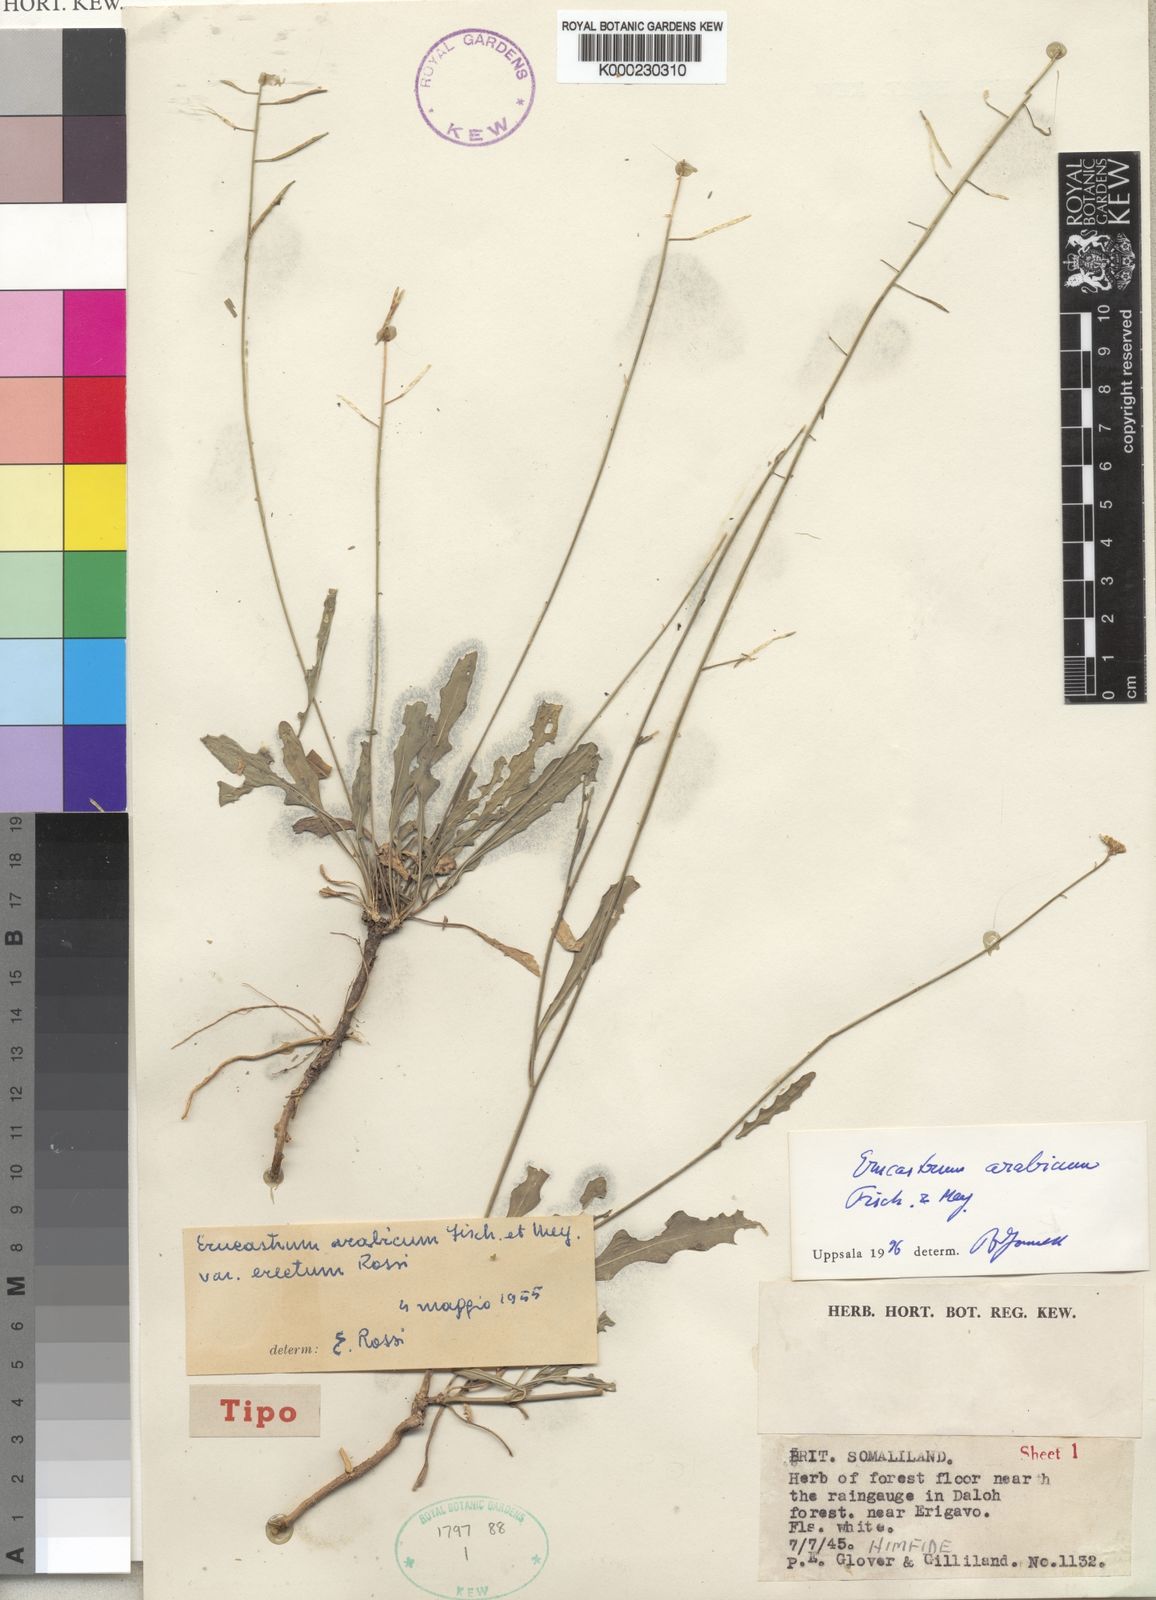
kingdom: Plantae
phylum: Tracheophyta
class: Magnoliopsida
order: Brassicales
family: Brassicaceae
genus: Erucastrum
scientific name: Erucastrum arabicum
